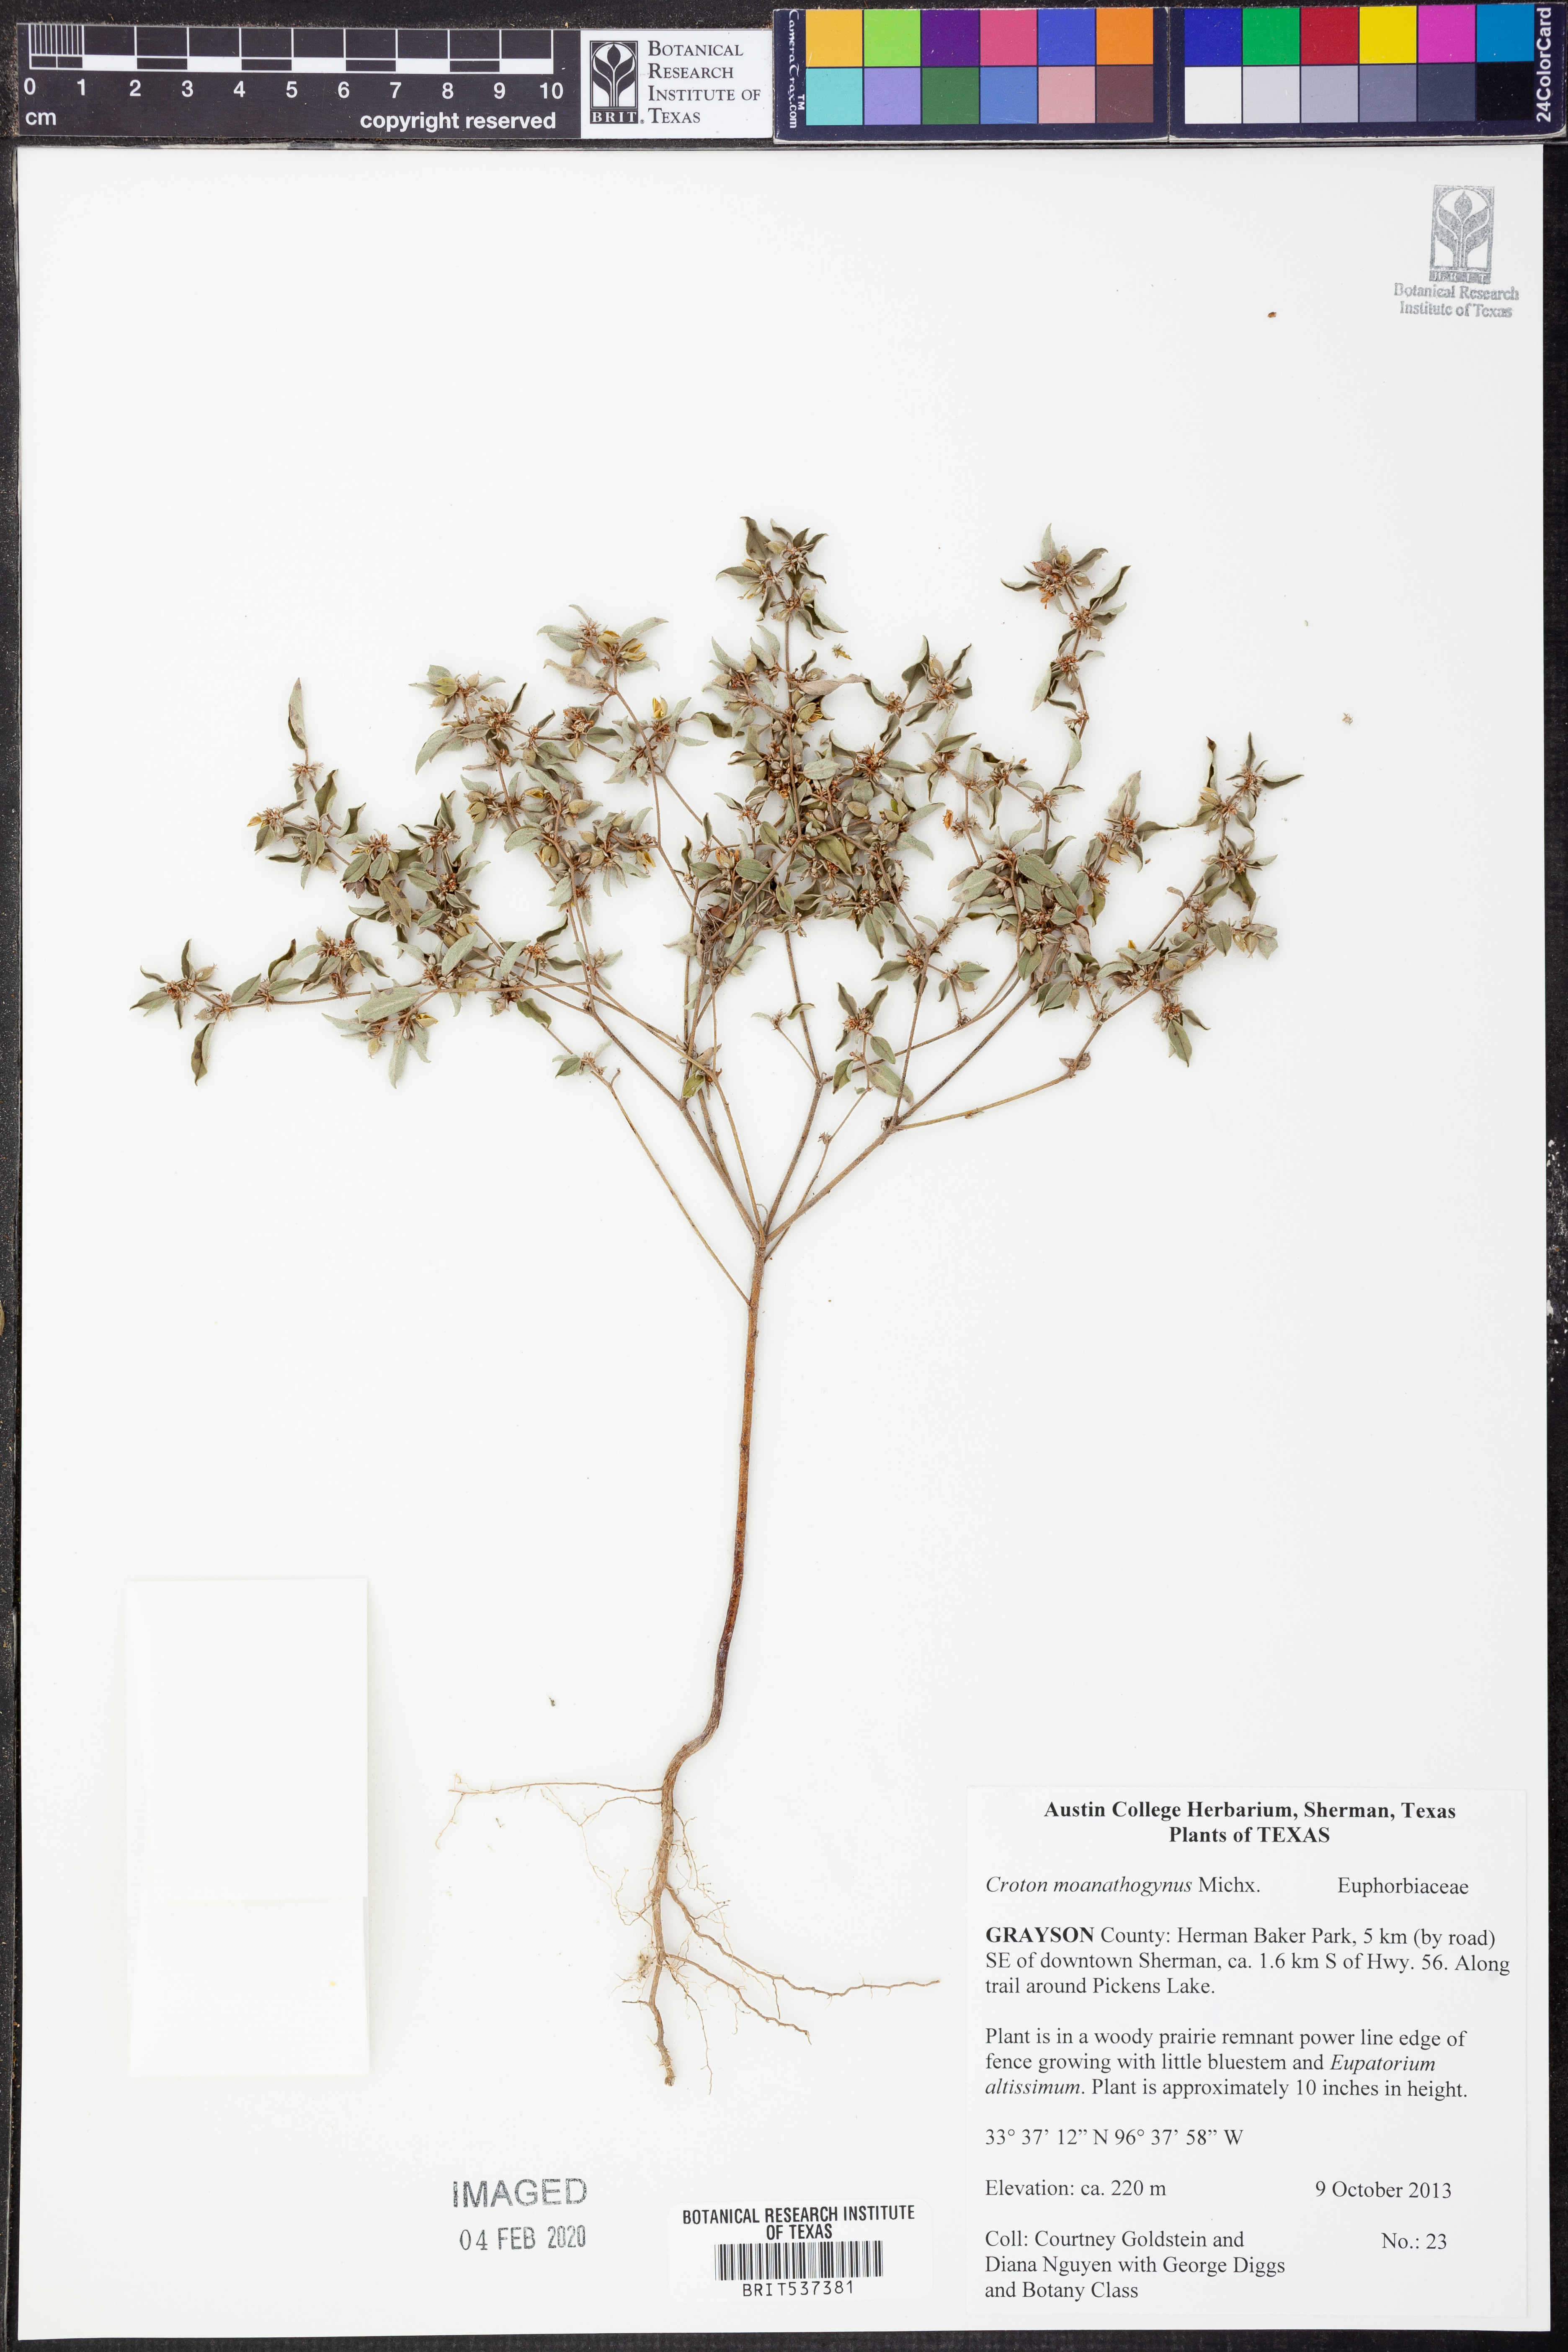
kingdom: Plantae
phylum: Tracheophyta
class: Magnoliopsida
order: Malpighiales
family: Euphorbiaceae
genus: Croton
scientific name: Croton monanthogynus
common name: One-seed croton
